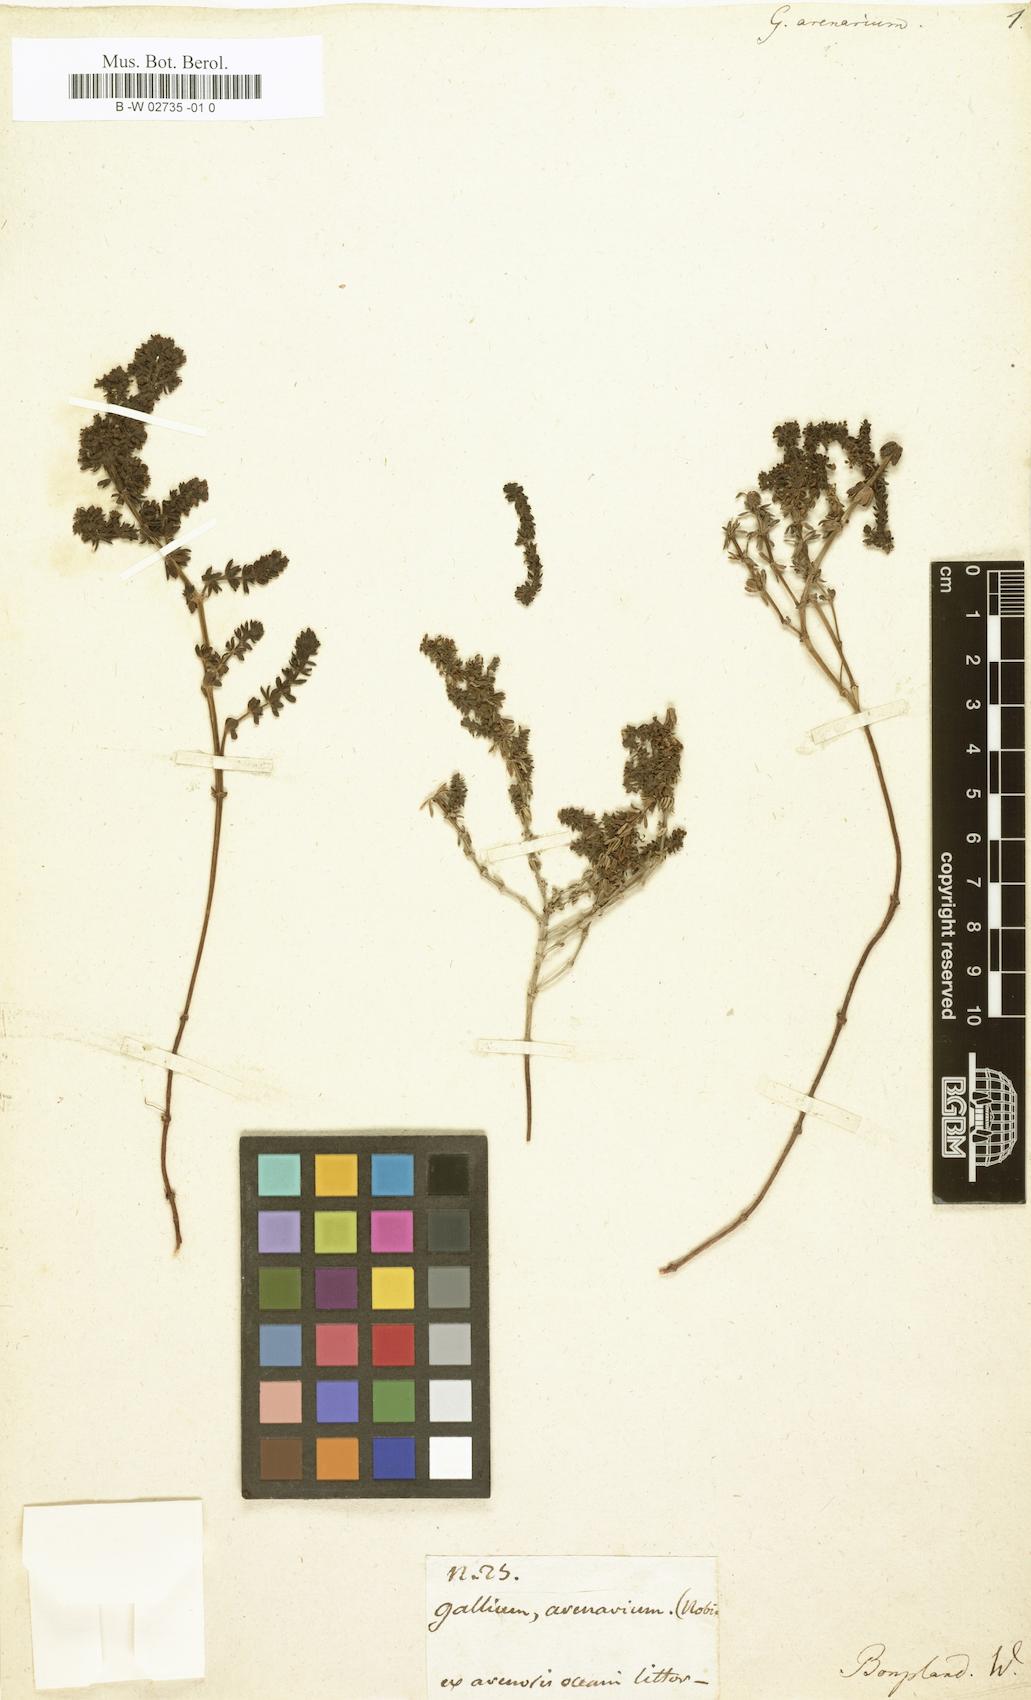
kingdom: Plantae
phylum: Tracheophyta
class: Magnoliopsida
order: Gentianales
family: Rubiaceae
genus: Galium
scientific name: Galium arenarium
